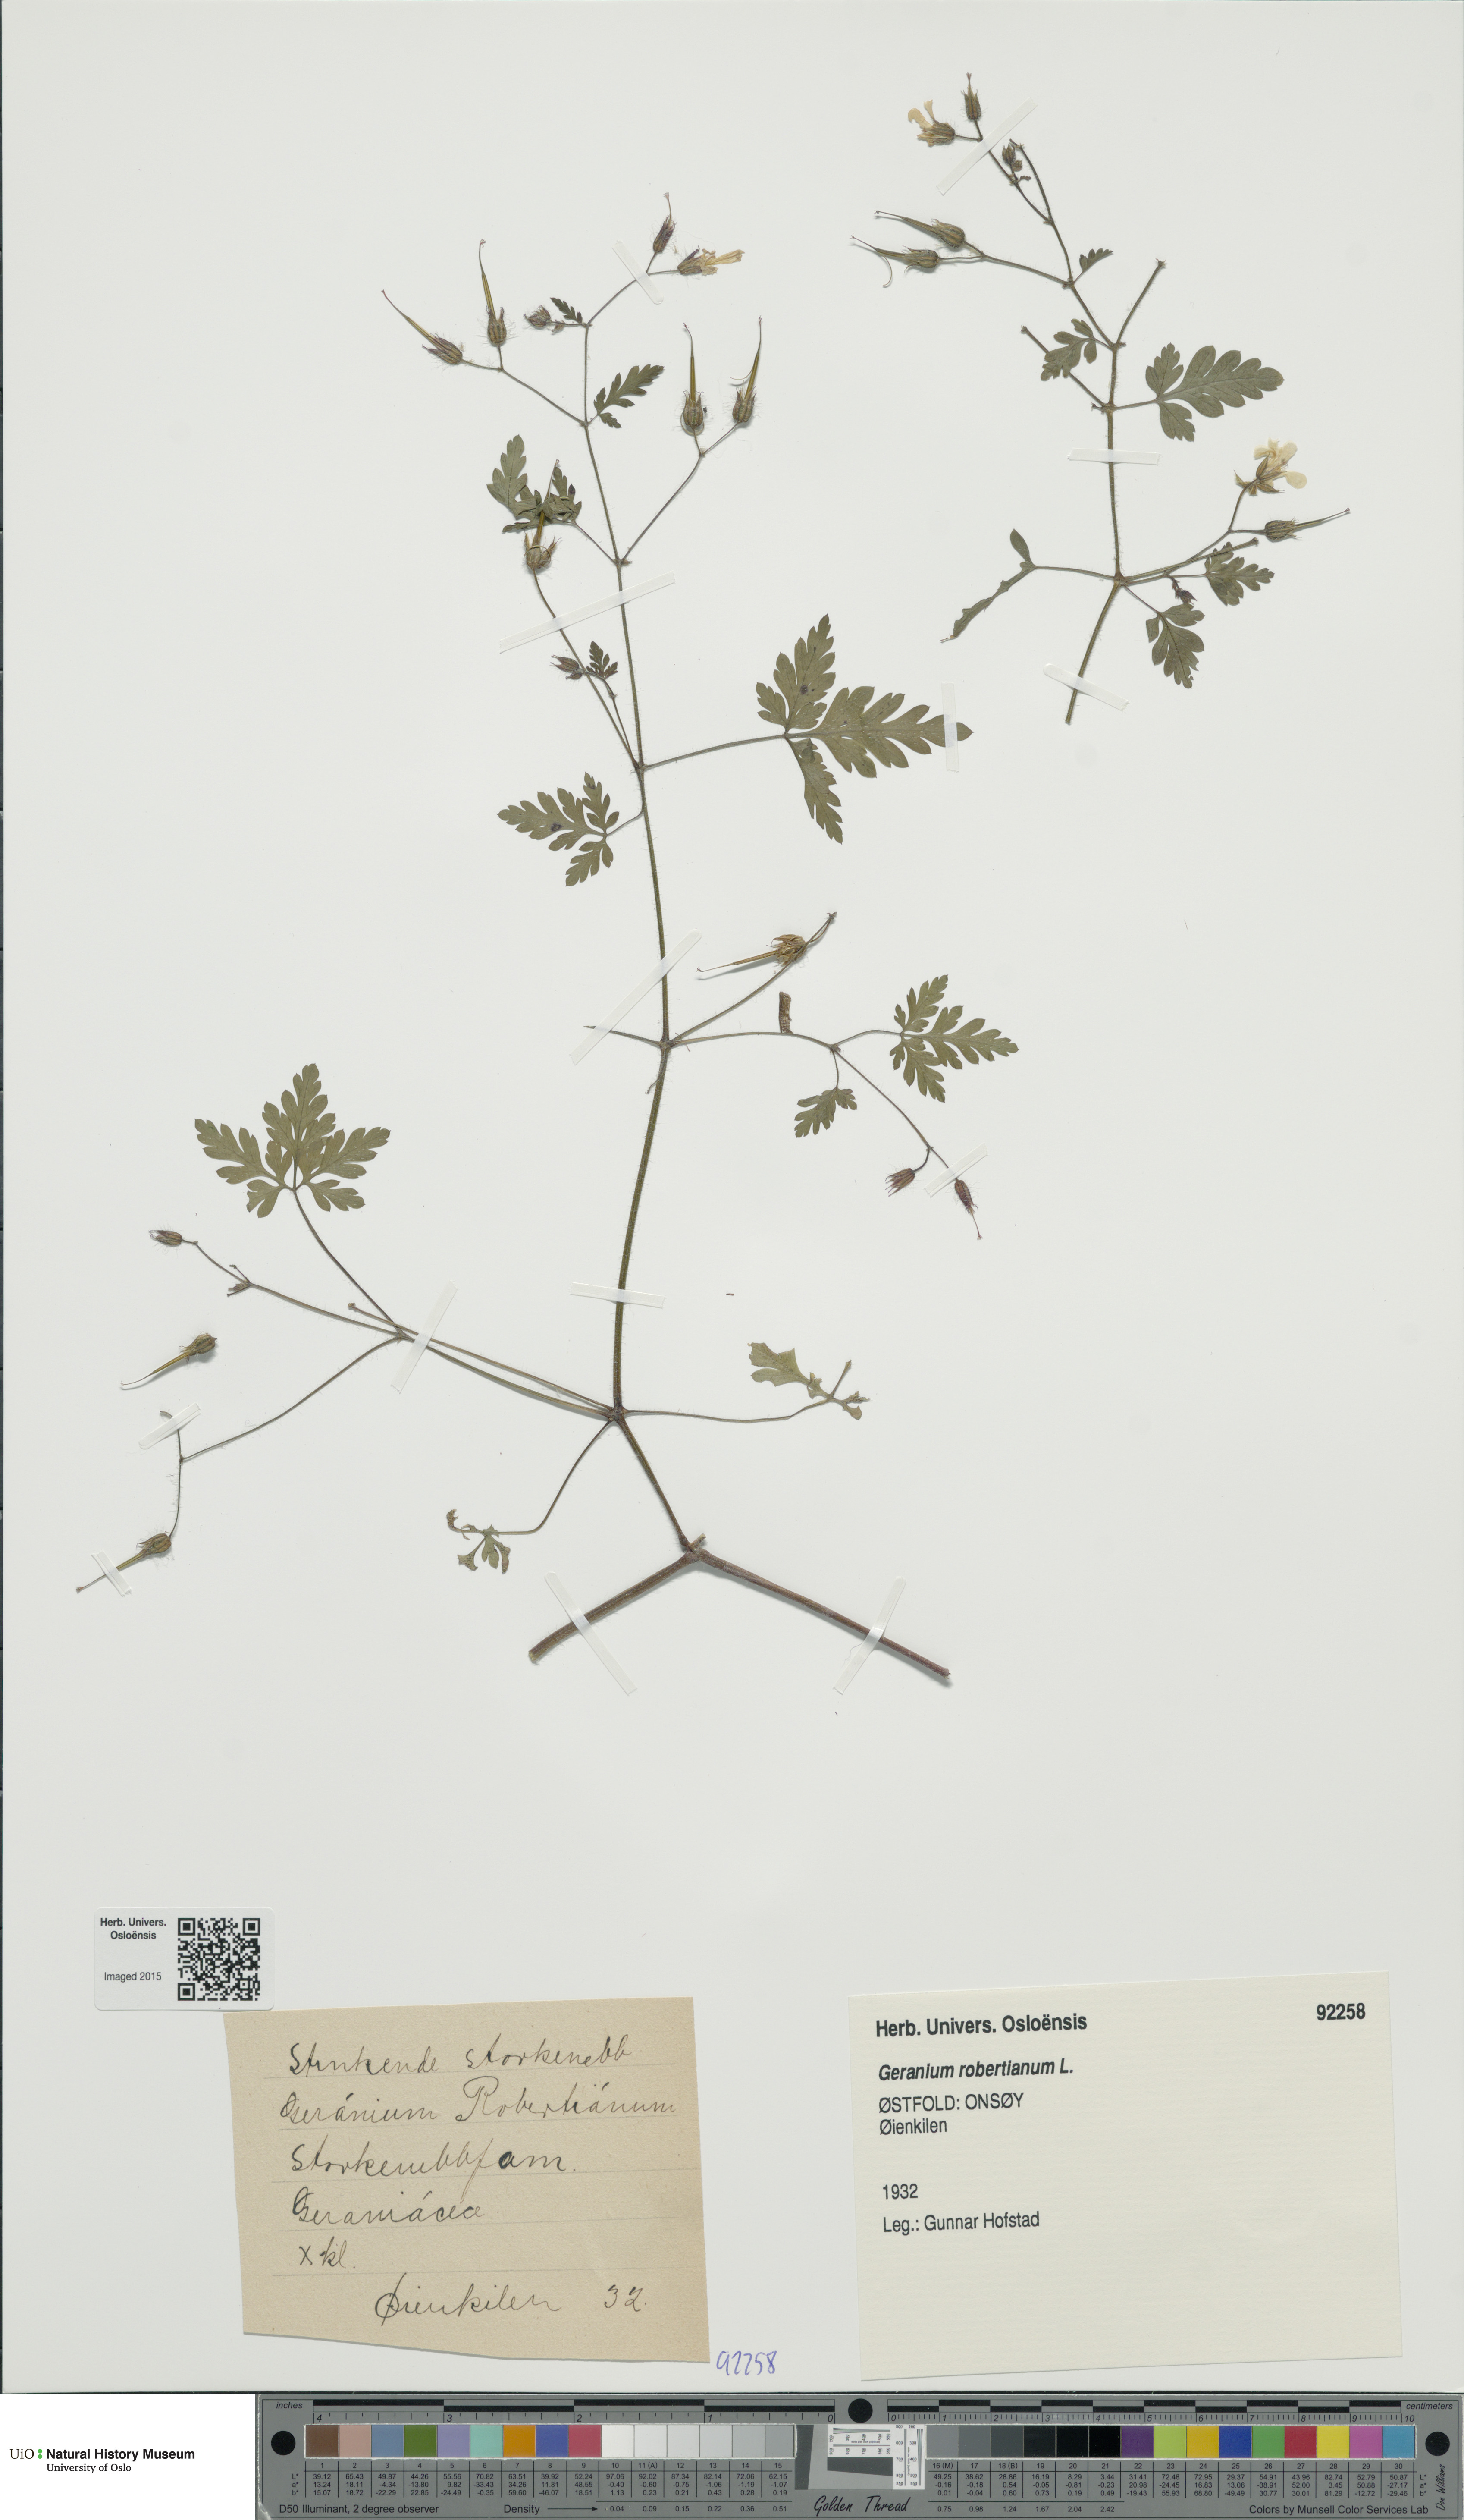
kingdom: Plantae
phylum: Tracheophyta
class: Magnoliopsida
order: Geraniales
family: Geraniaceae
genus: Geranium
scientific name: Geranium robertianum
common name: Herb-robert
